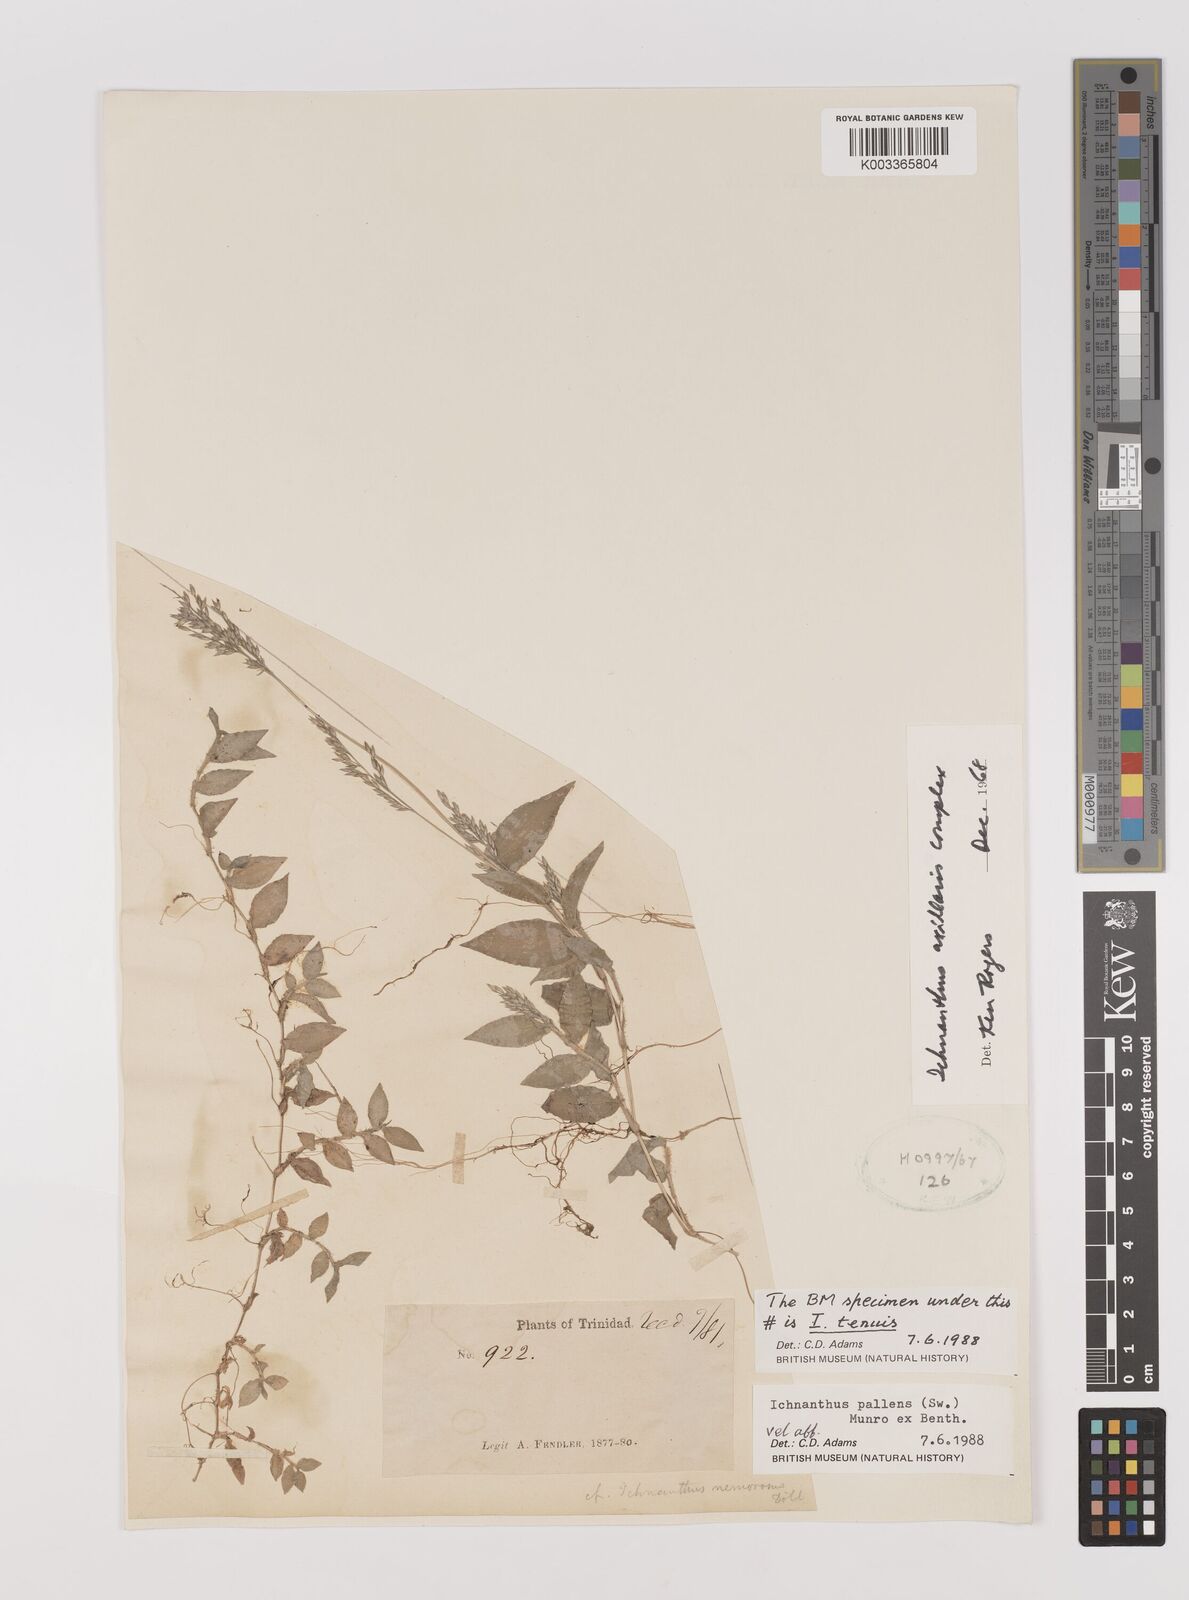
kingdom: Plantae
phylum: Tracheophyta
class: Liliopsida
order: Poales
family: Poaceae
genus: Ichnanthus
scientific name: Ichnanthus pallens
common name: Water grass
